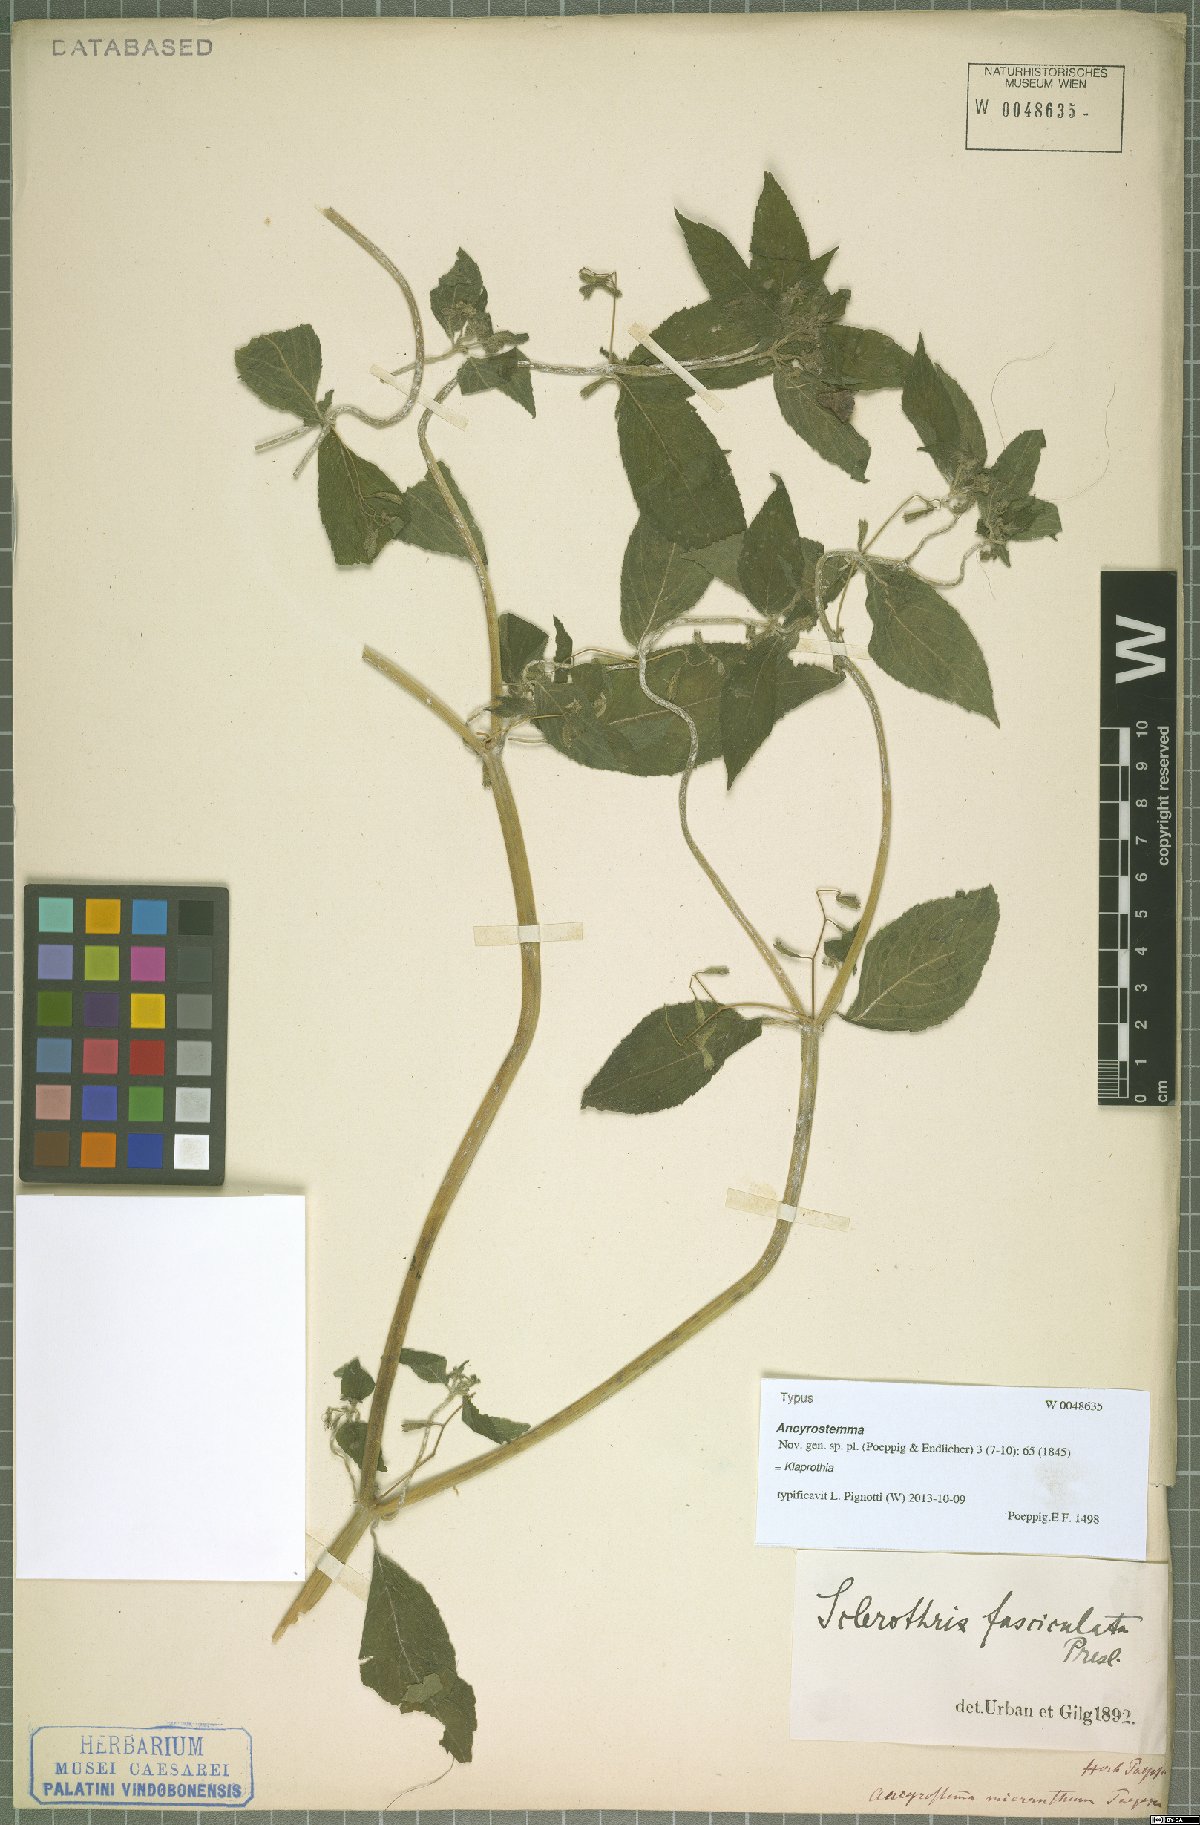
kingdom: Plantae
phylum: Tracheophyta
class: Magnoliopsida
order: Cornales
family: Loasaceae
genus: Klaprothia
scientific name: Klaprothia fasciculata
